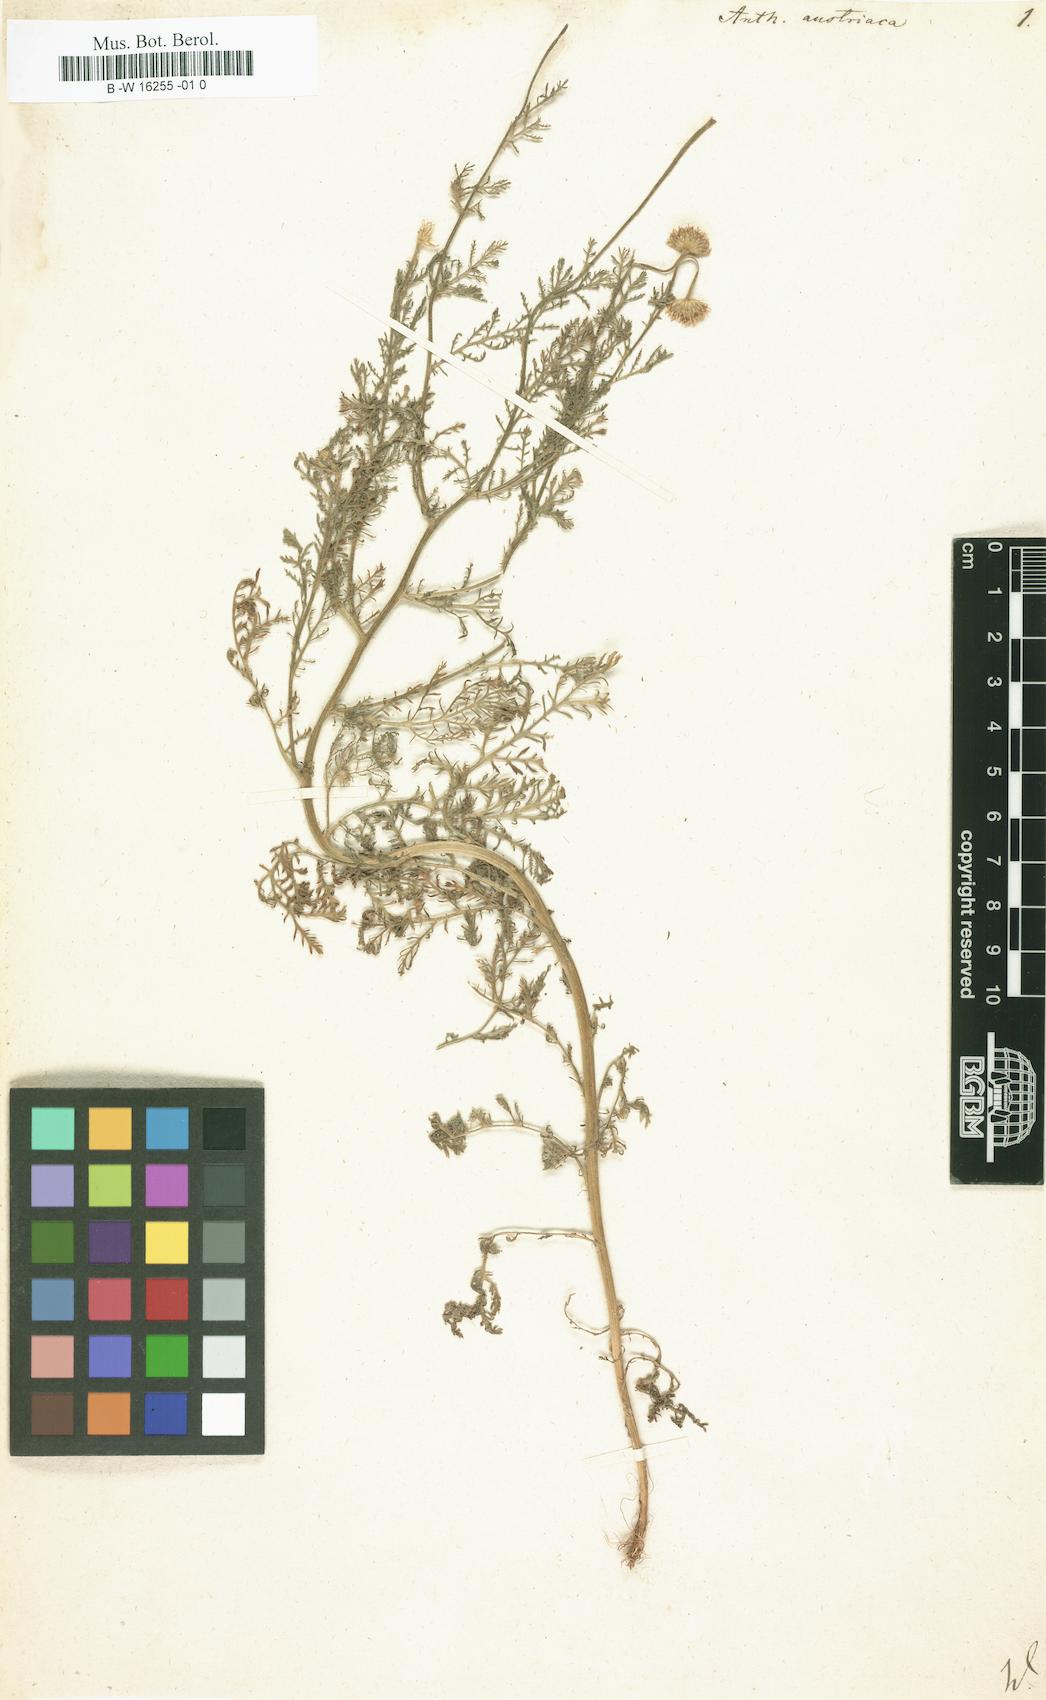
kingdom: Plantae
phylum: Tracheophyta
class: Magnoliopsida
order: Asterales
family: Asteraceae
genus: Cota
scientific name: Cota austriaca
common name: Austrian chamomile
